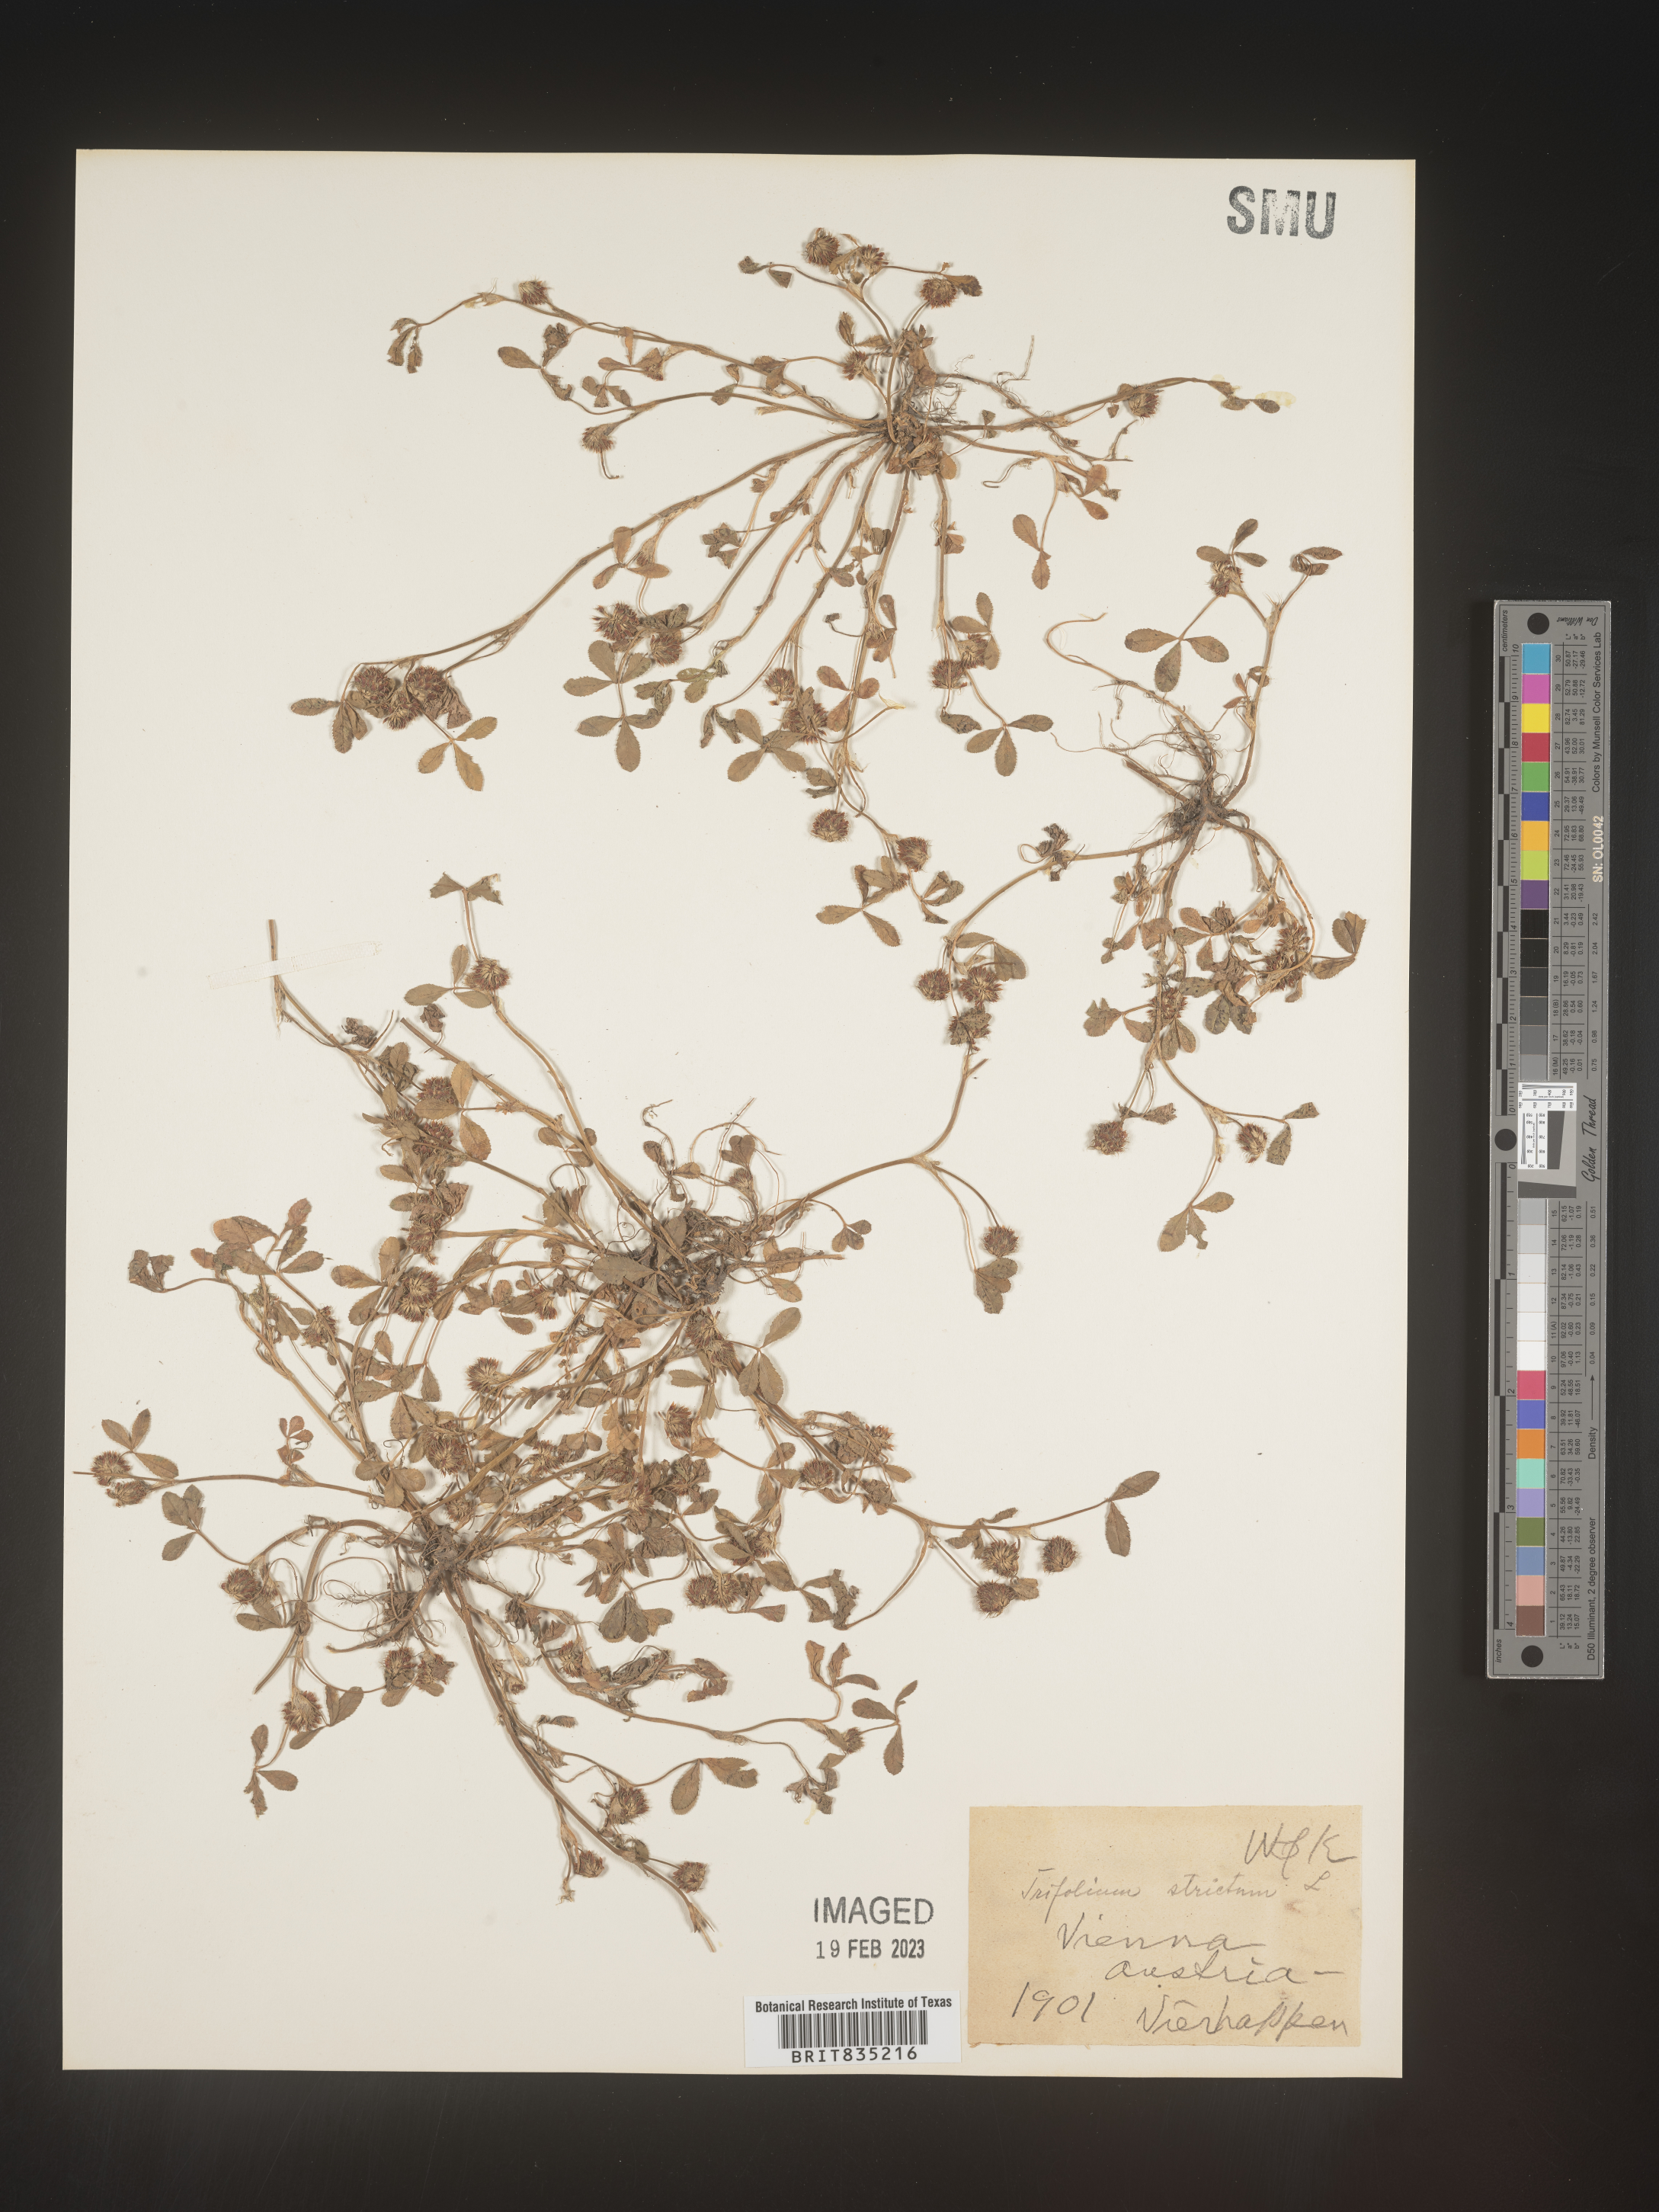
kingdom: Plantae
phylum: Tracheophyta
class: Magnoliopsida
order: Fabales
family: Fabaceae
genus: Trifolium
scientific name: Trifolium
